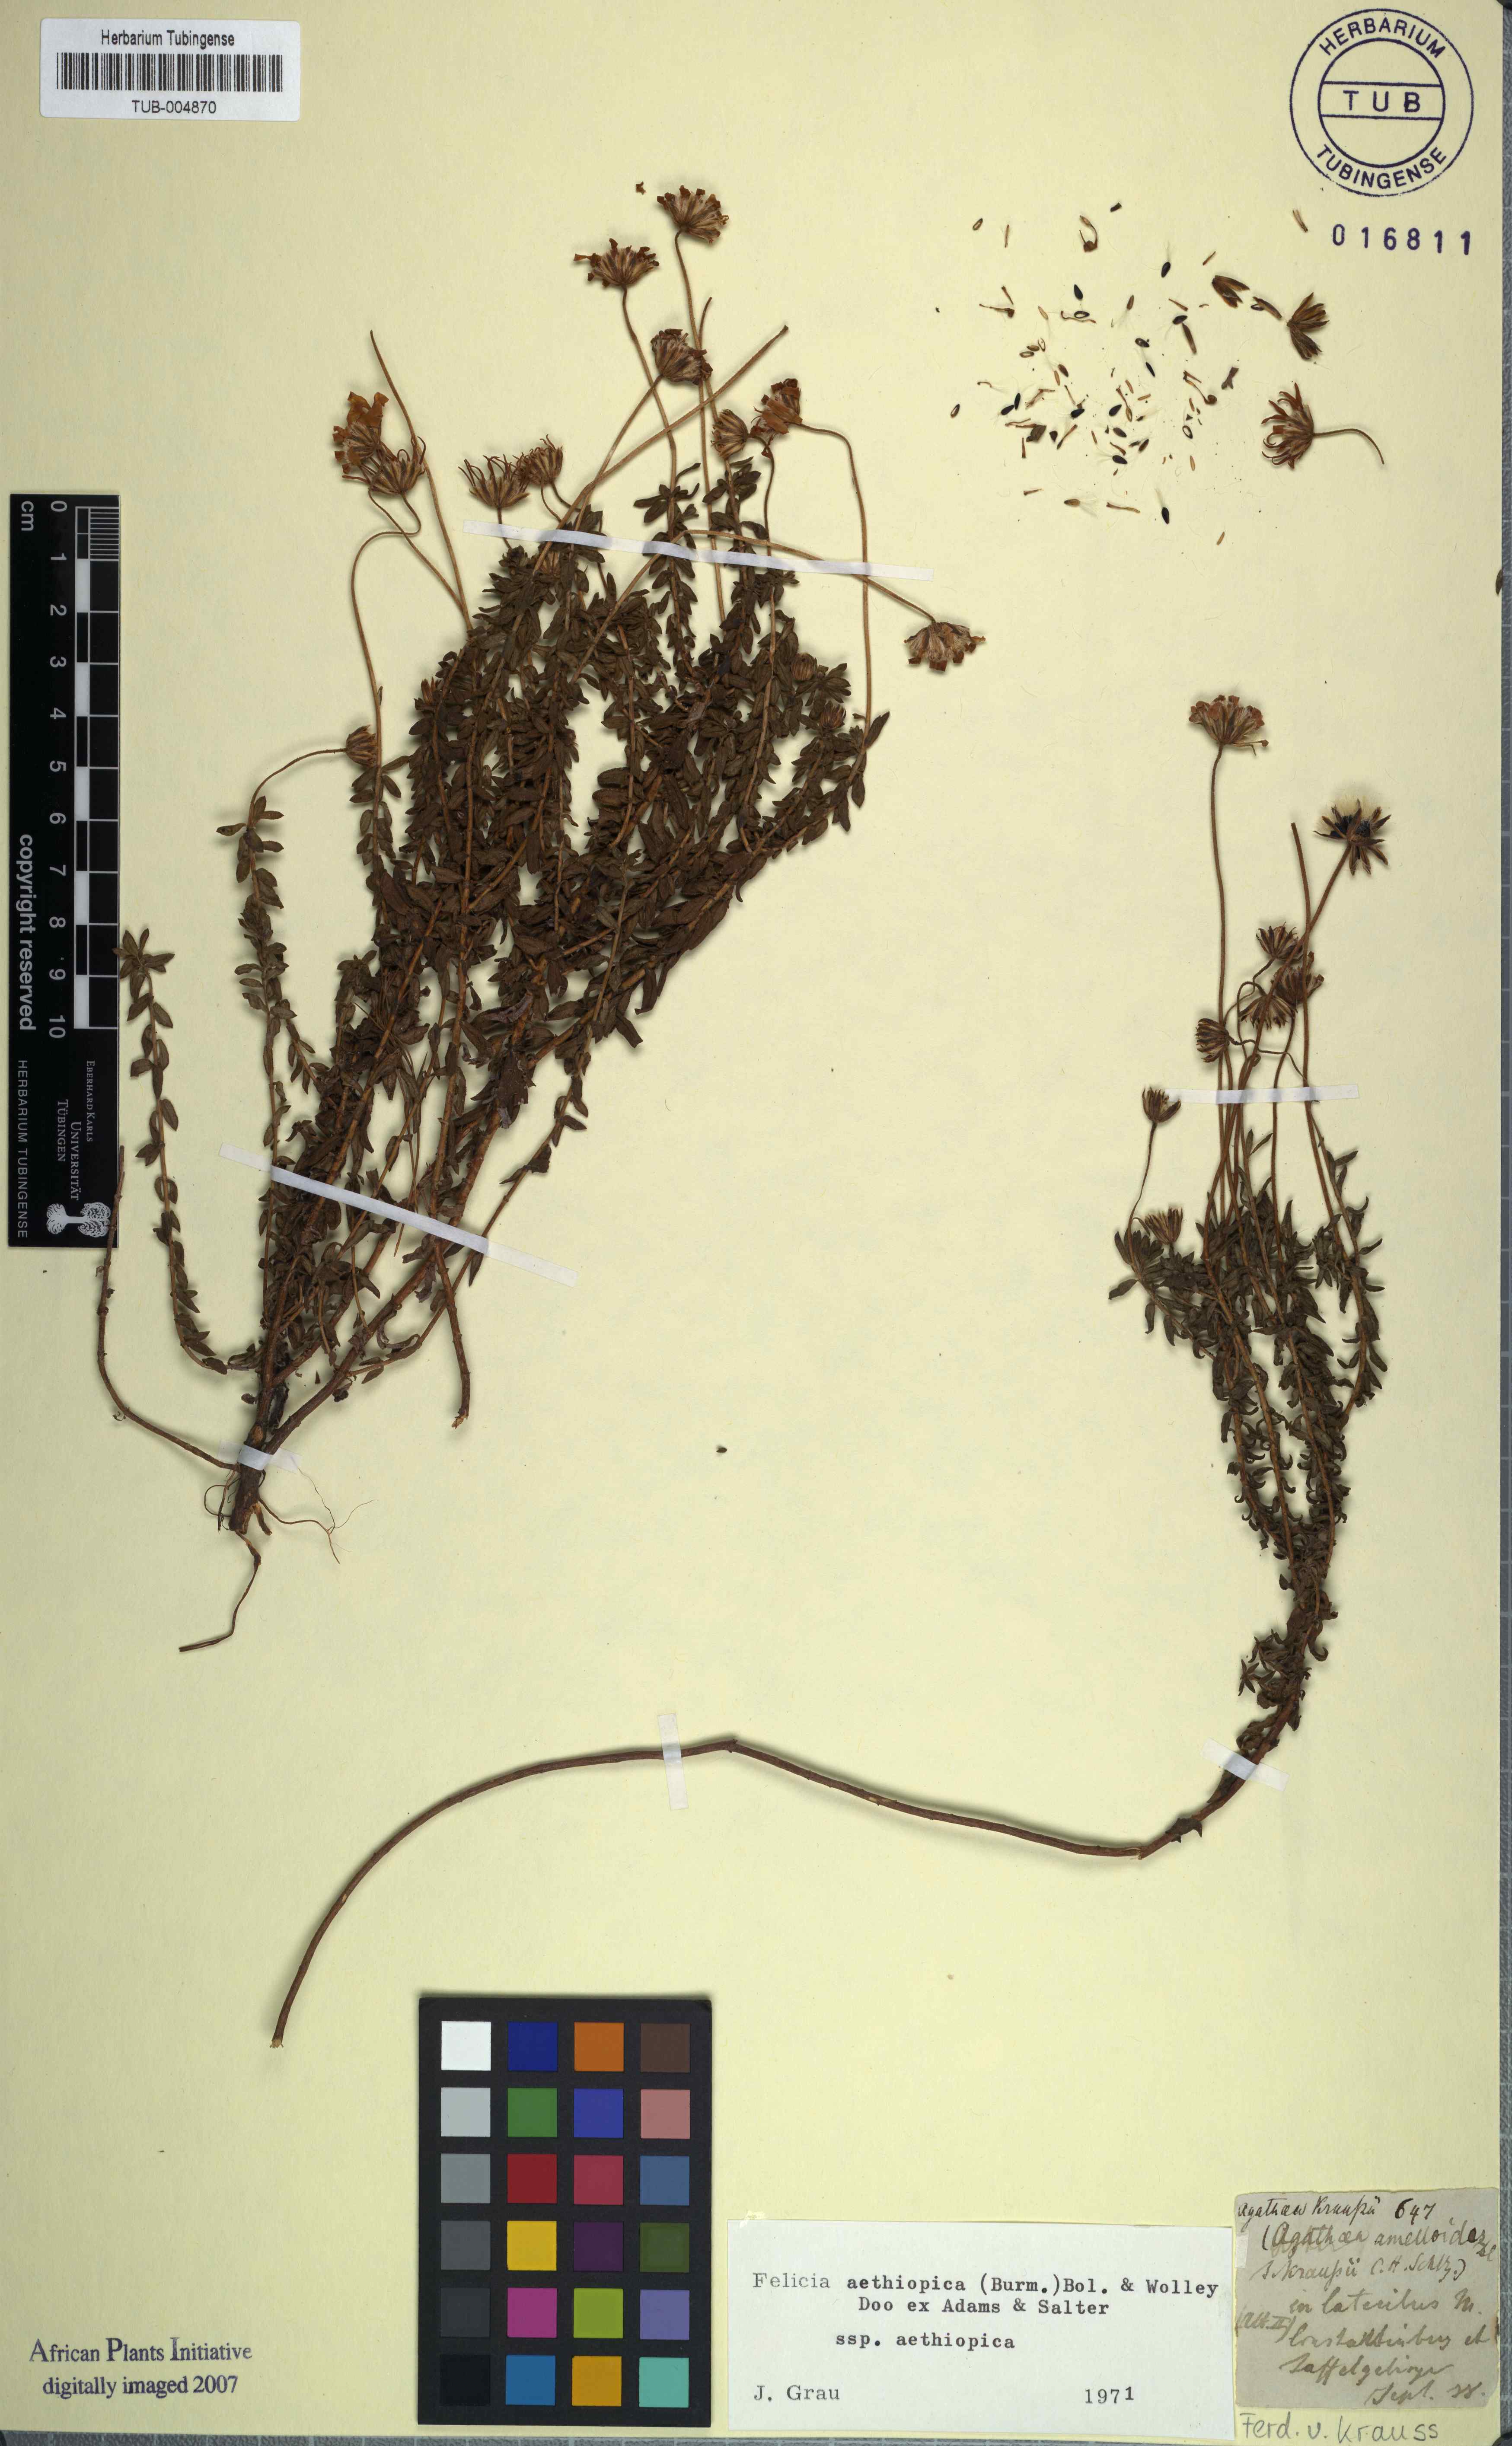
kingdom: Plantae
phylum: Tracheophyta
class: Magnoliopsida
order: Asterales
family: Asteraceae
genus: Felicia
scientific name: Felicia aethiopica
